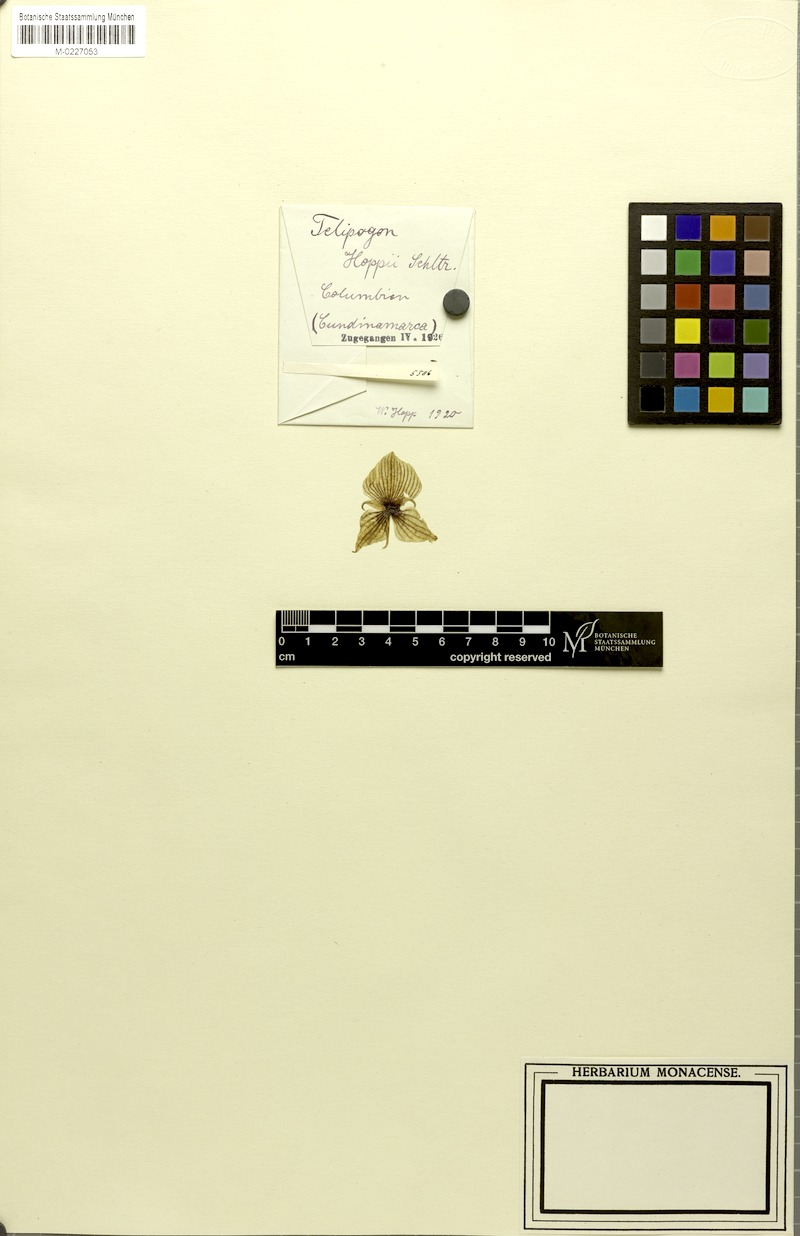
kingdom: Plantae
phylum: Tracheophyta
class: Liliopsida
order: Asparagales
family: Orchidaceae
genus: Telipogon
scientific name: Telipogon hoppii
